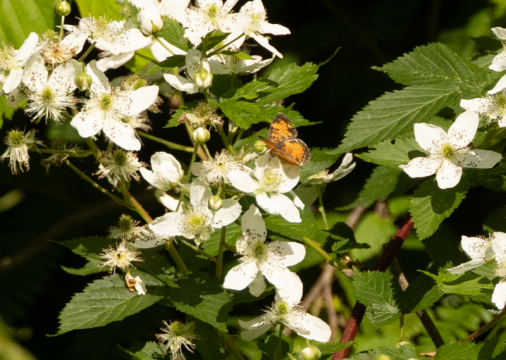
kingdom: Animalia
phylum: Arthropoda
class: Insecta
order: Lepidoptera
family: Nymphalidae
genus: Phyciodes
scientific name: Phyciodes
